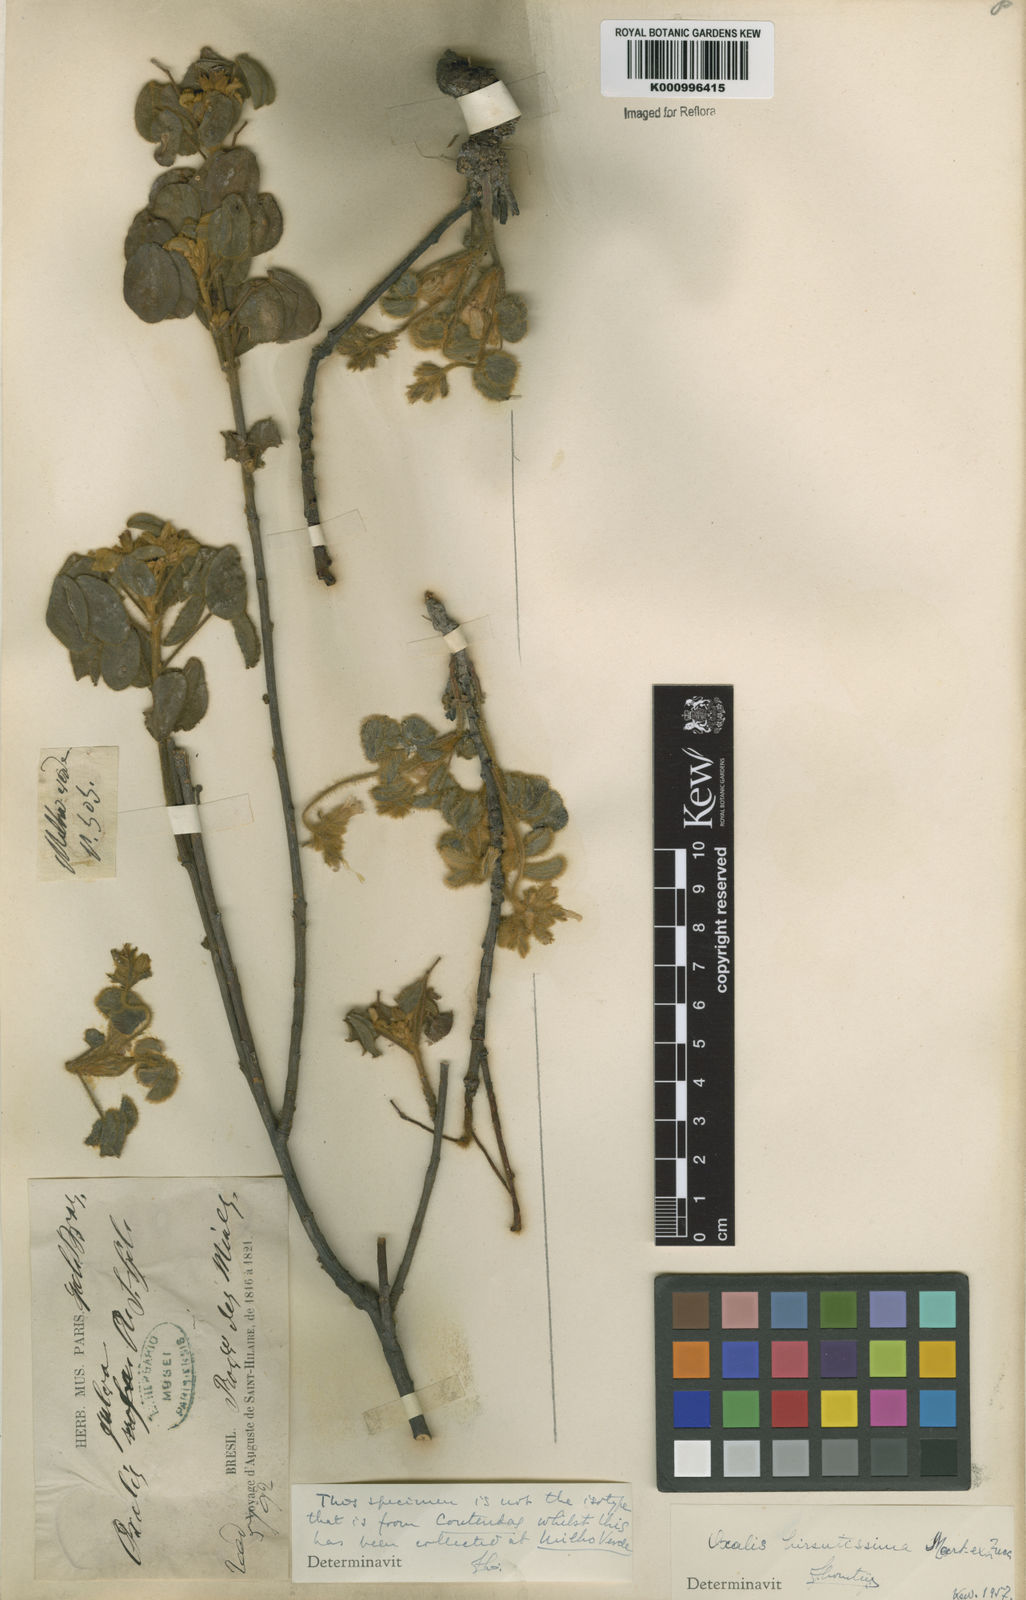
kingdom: Plantae
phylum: Tracheophyta
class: Magnoliopsida
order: Oxalidales
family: Oxalidaceae
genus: Oxalis
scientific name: Oxalis hirsutissima
